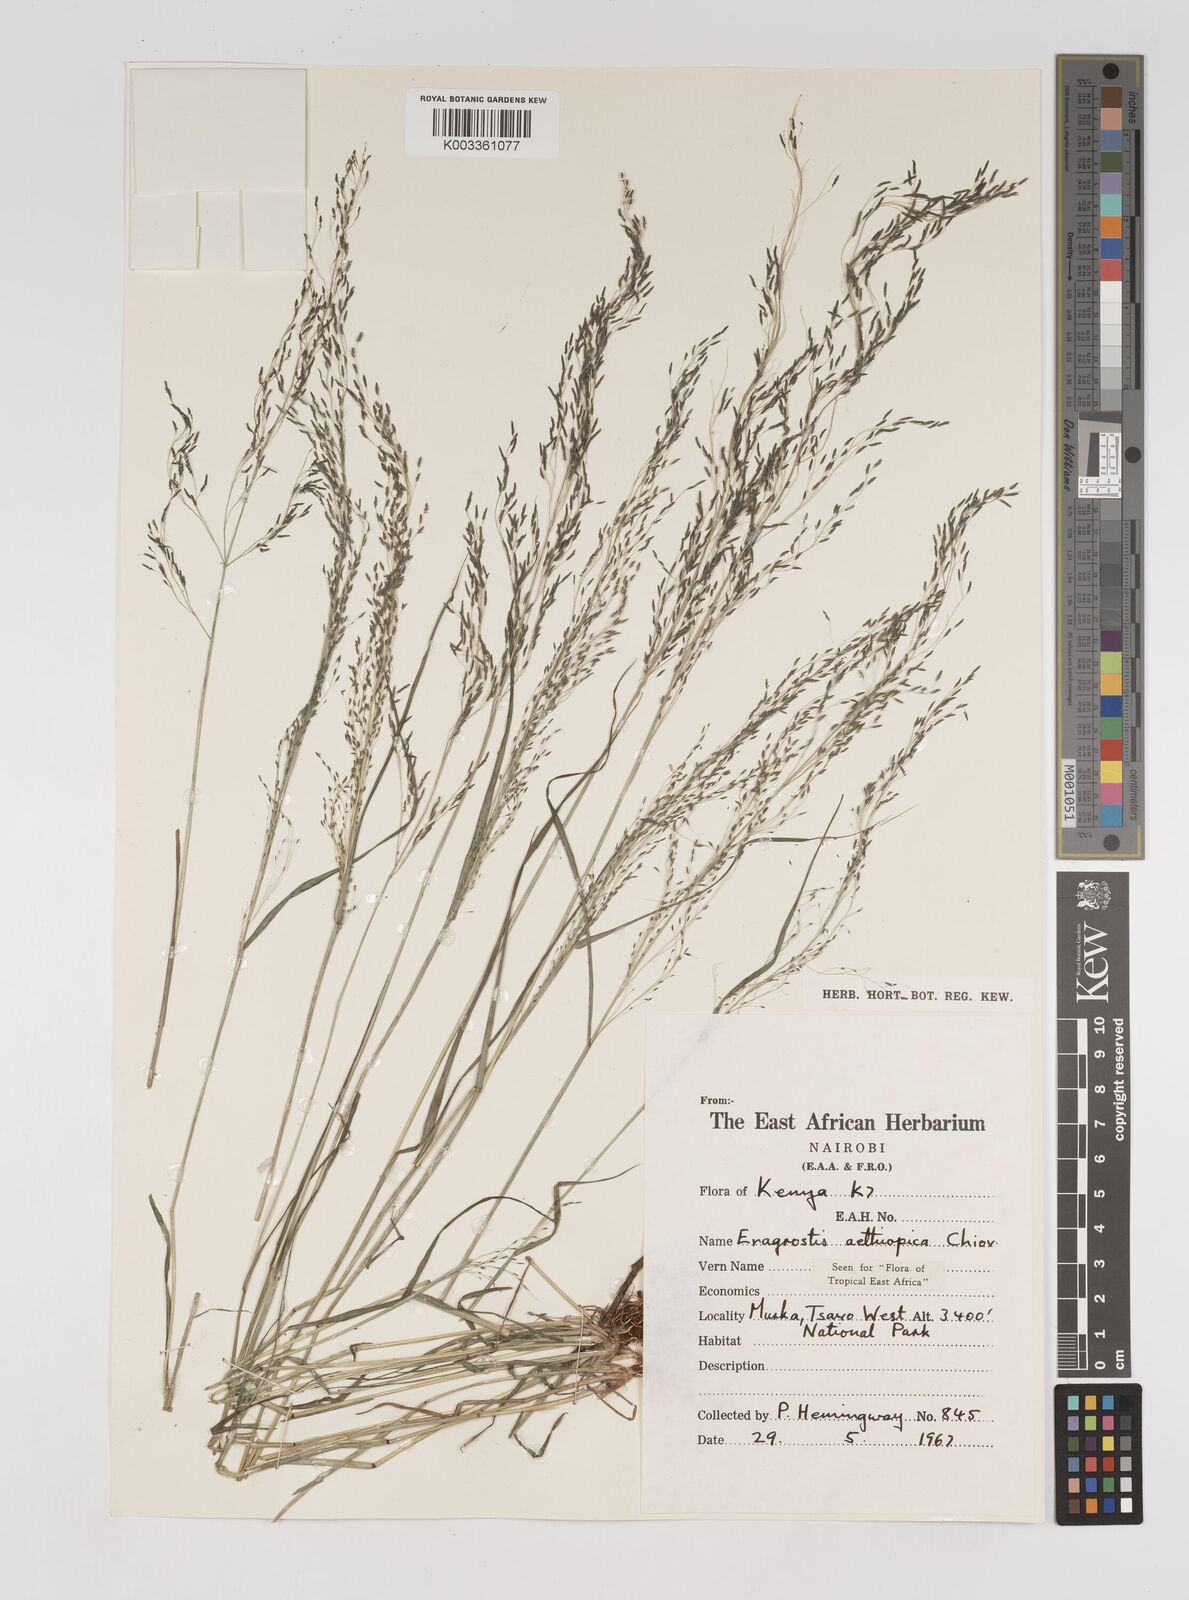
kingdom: Plantae
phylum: Tracheophyta
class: Liliopsida
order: Poales
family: Poaceae
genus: Eragrostis
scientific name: Eragrostis aethiopica
